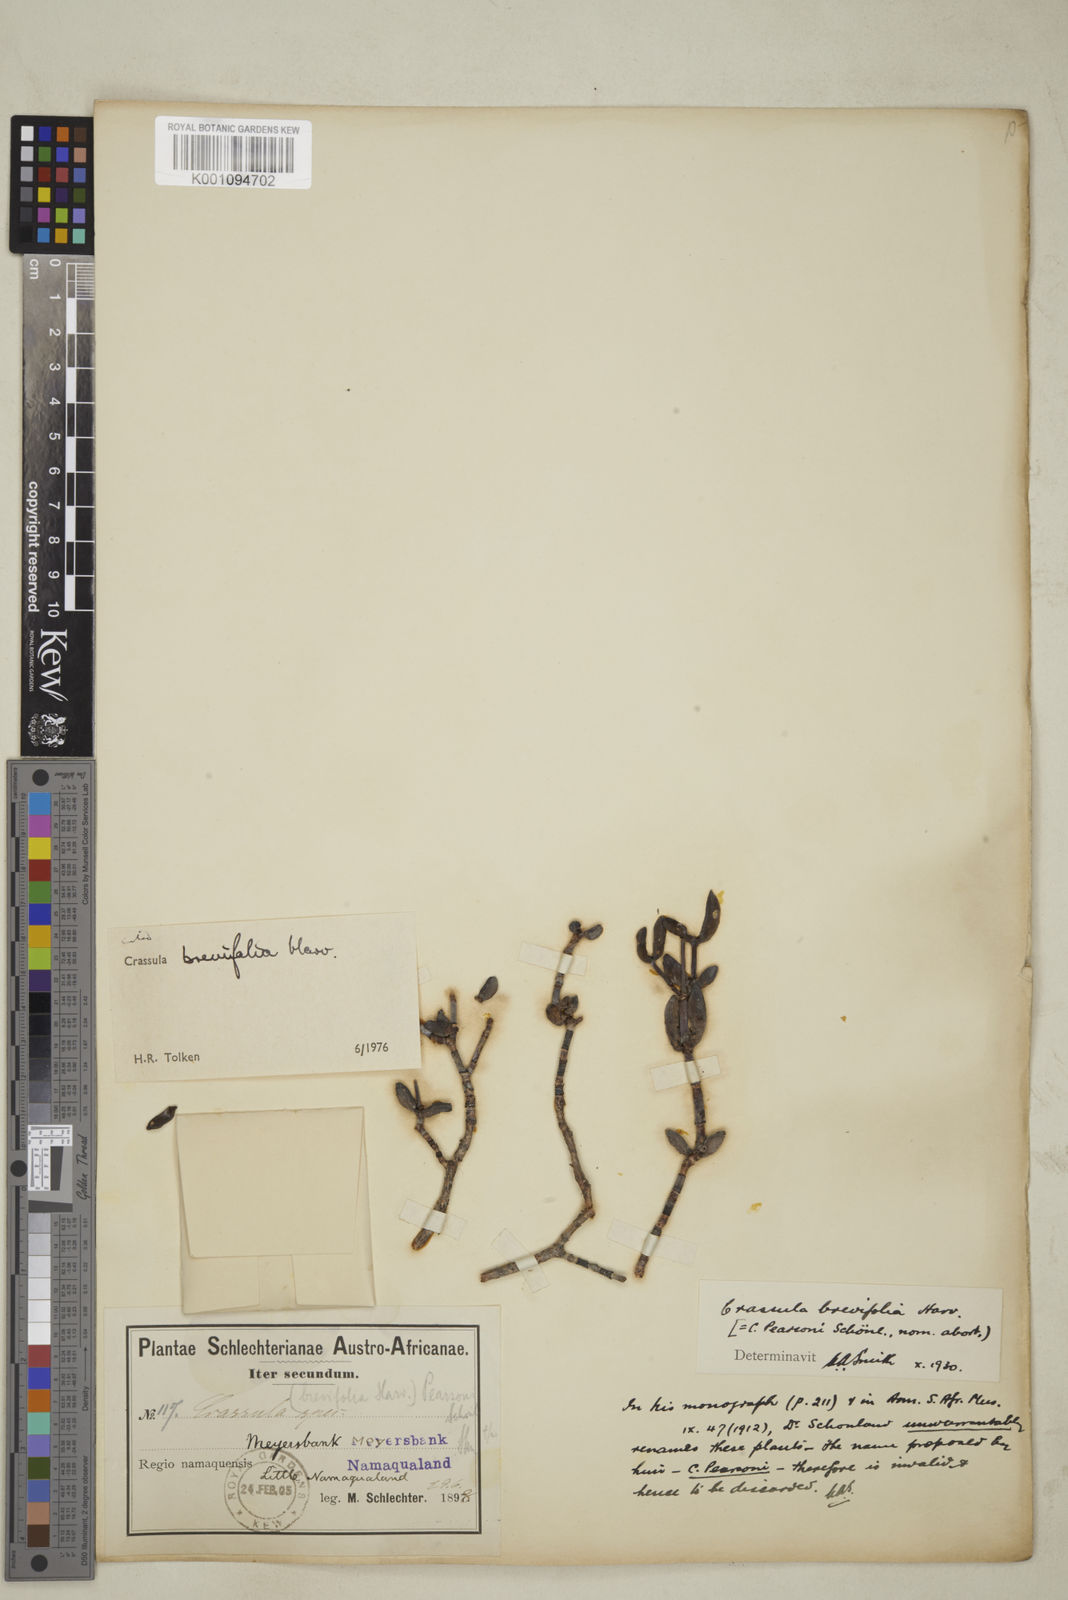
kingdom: Plantae
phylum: Tracheophyta
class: Magnoliopsida
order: Saxifragales
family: Crassulaceae
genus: Crassula
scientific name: Crassula brevifolia
